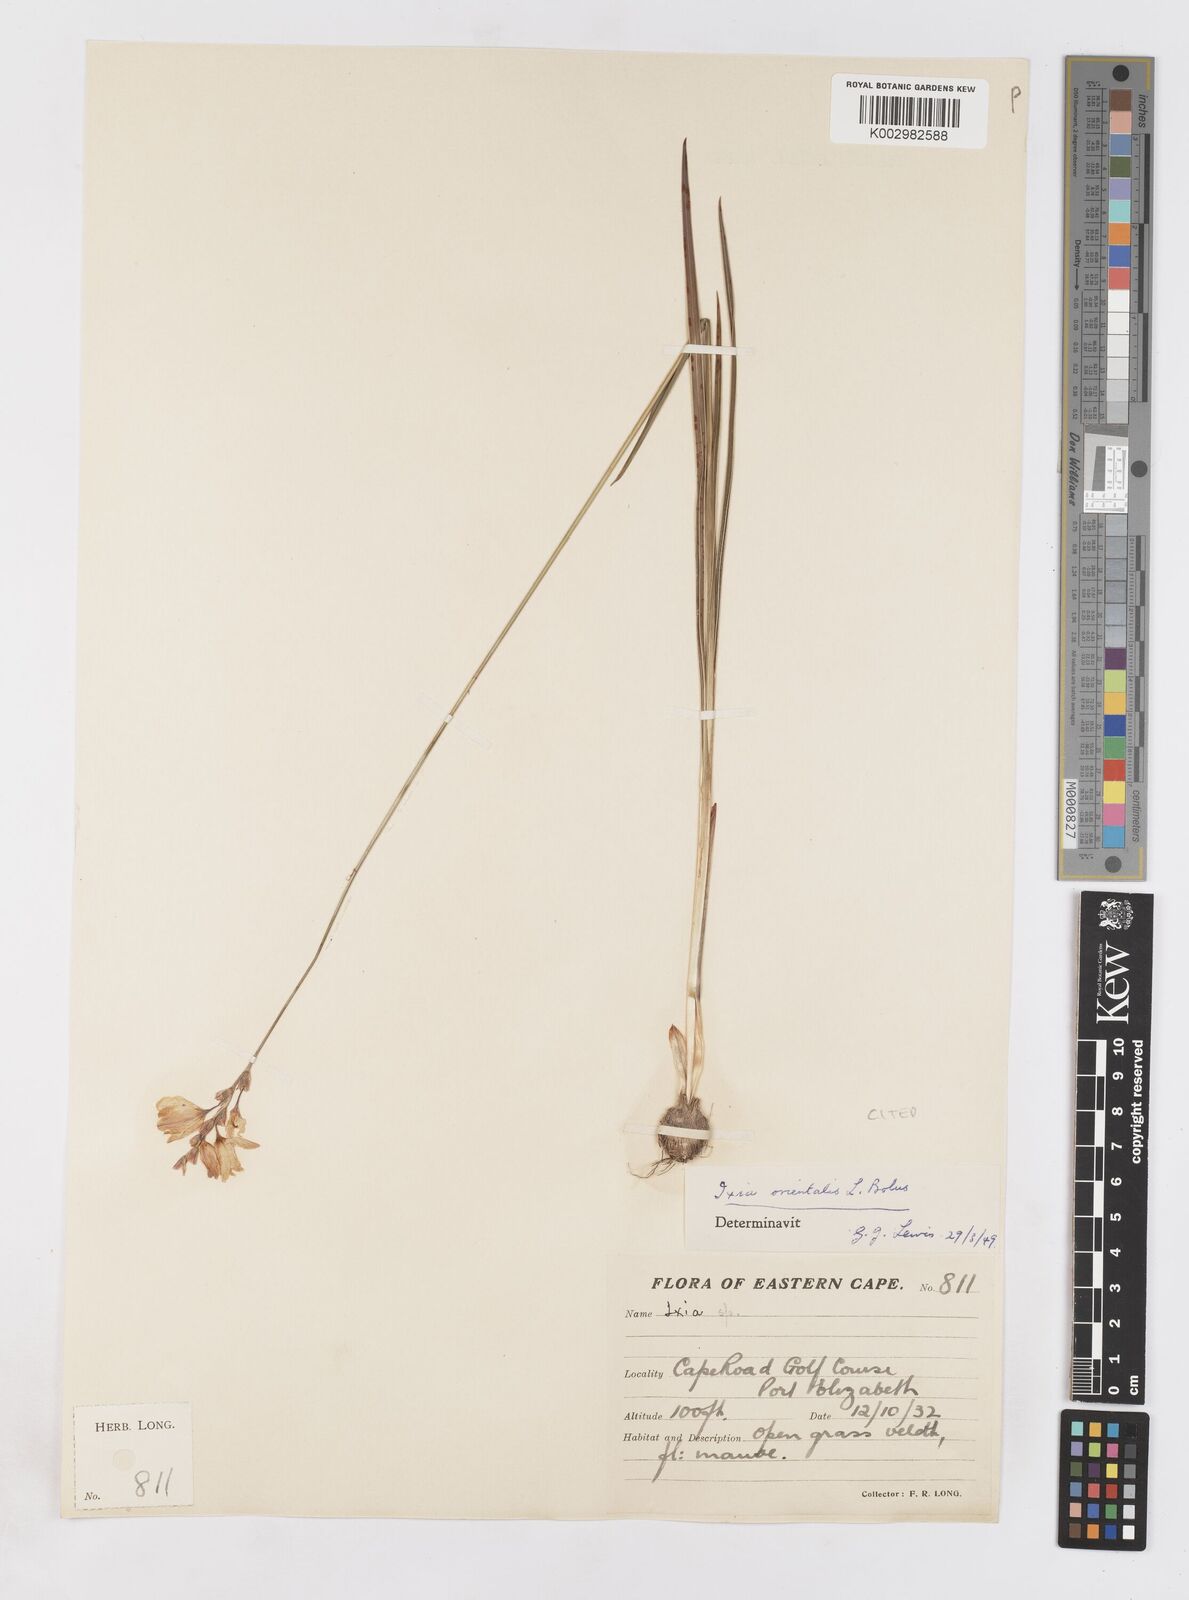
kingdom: Plantae
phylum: Tracheophyta
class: Liliopsida
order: Asparagales
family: Iridaceae
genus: Ixia
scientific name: Ixia orientalis
